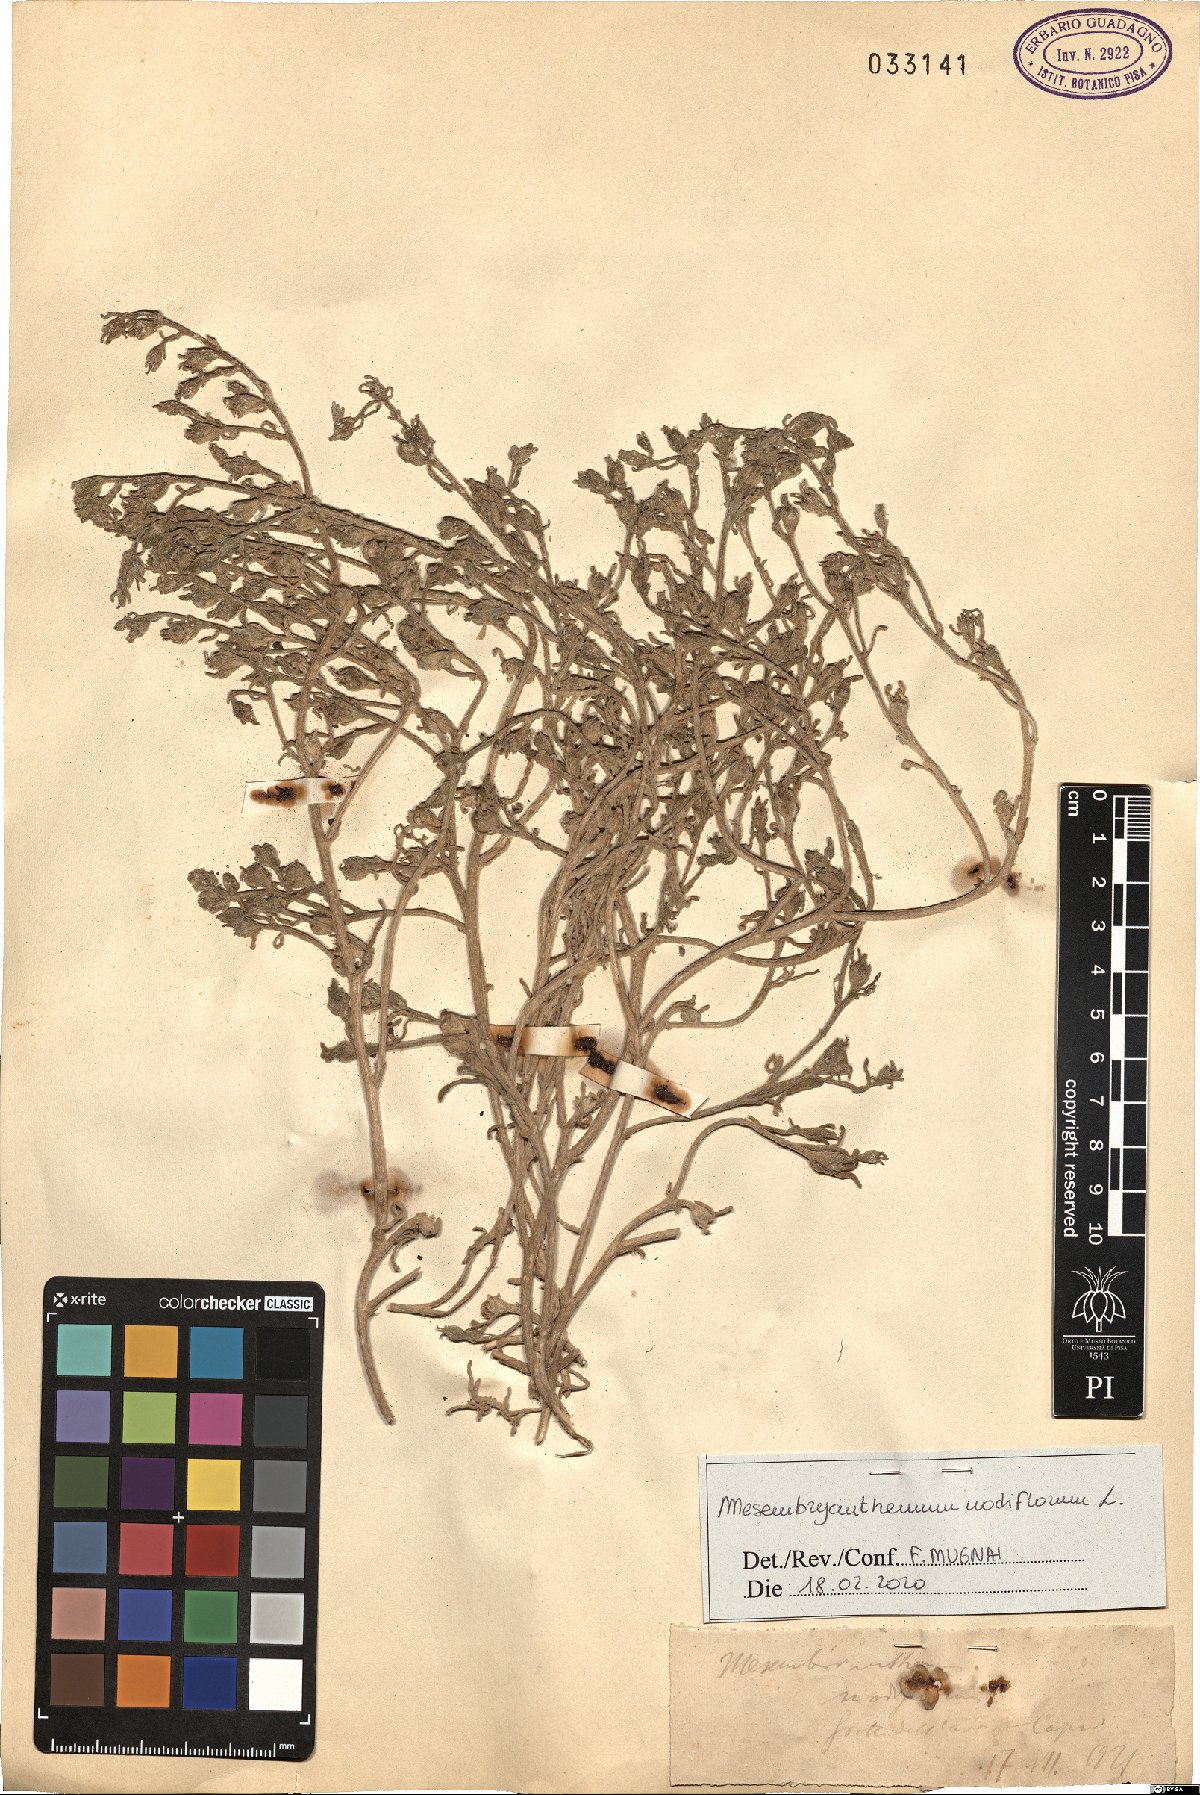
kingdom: Plantae
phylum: Tracheophyta
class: Magnoliopsida
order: Caryophyllales
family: Aizoaceae
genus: Mesembryanthemum
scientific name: Mesembryanthemum nodiflorum
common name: Slenderleaf iceplant
